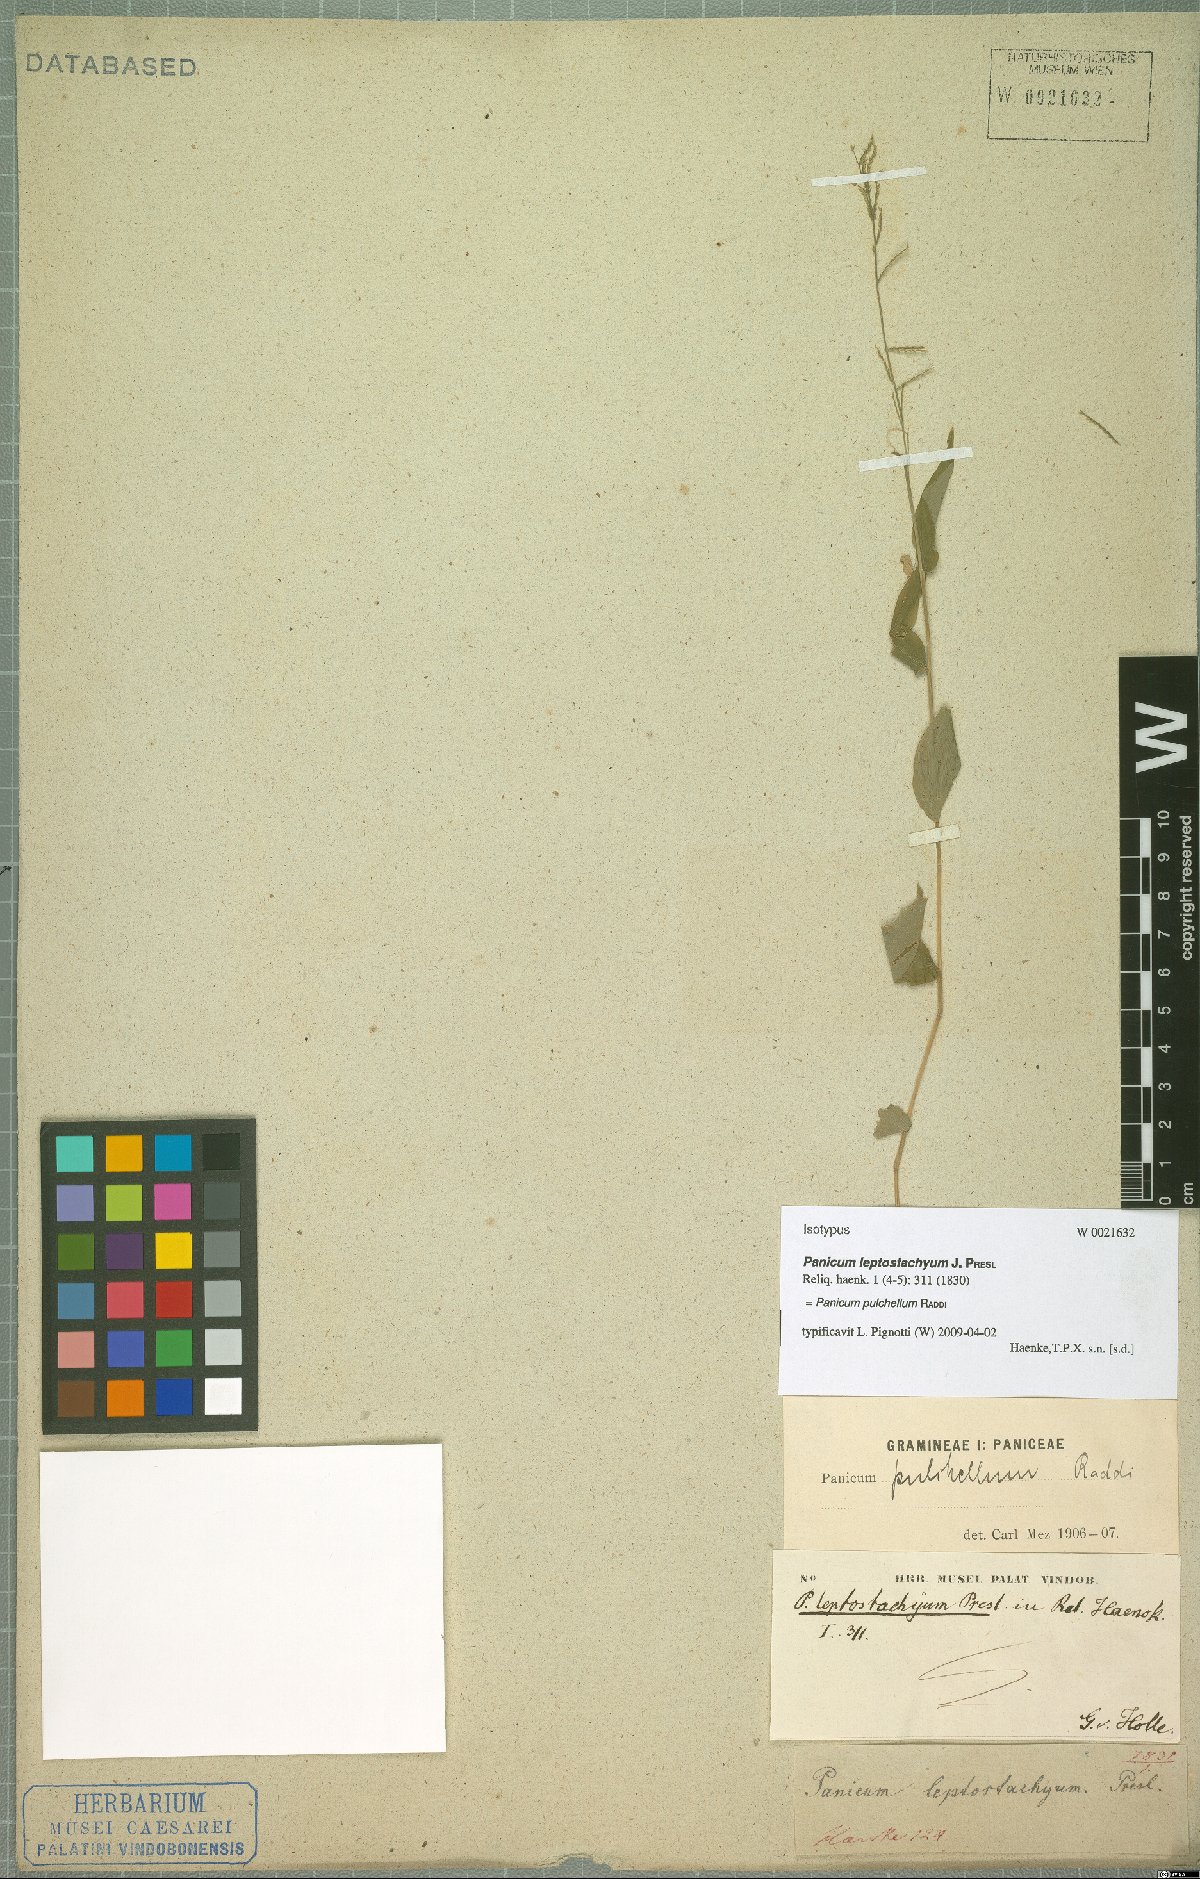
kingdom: Plantae
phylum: Tracheophyta
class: Liliopsida
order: Poales
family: Poaceae
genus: Ocellochloa
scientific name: Ocellochloa pulchella
